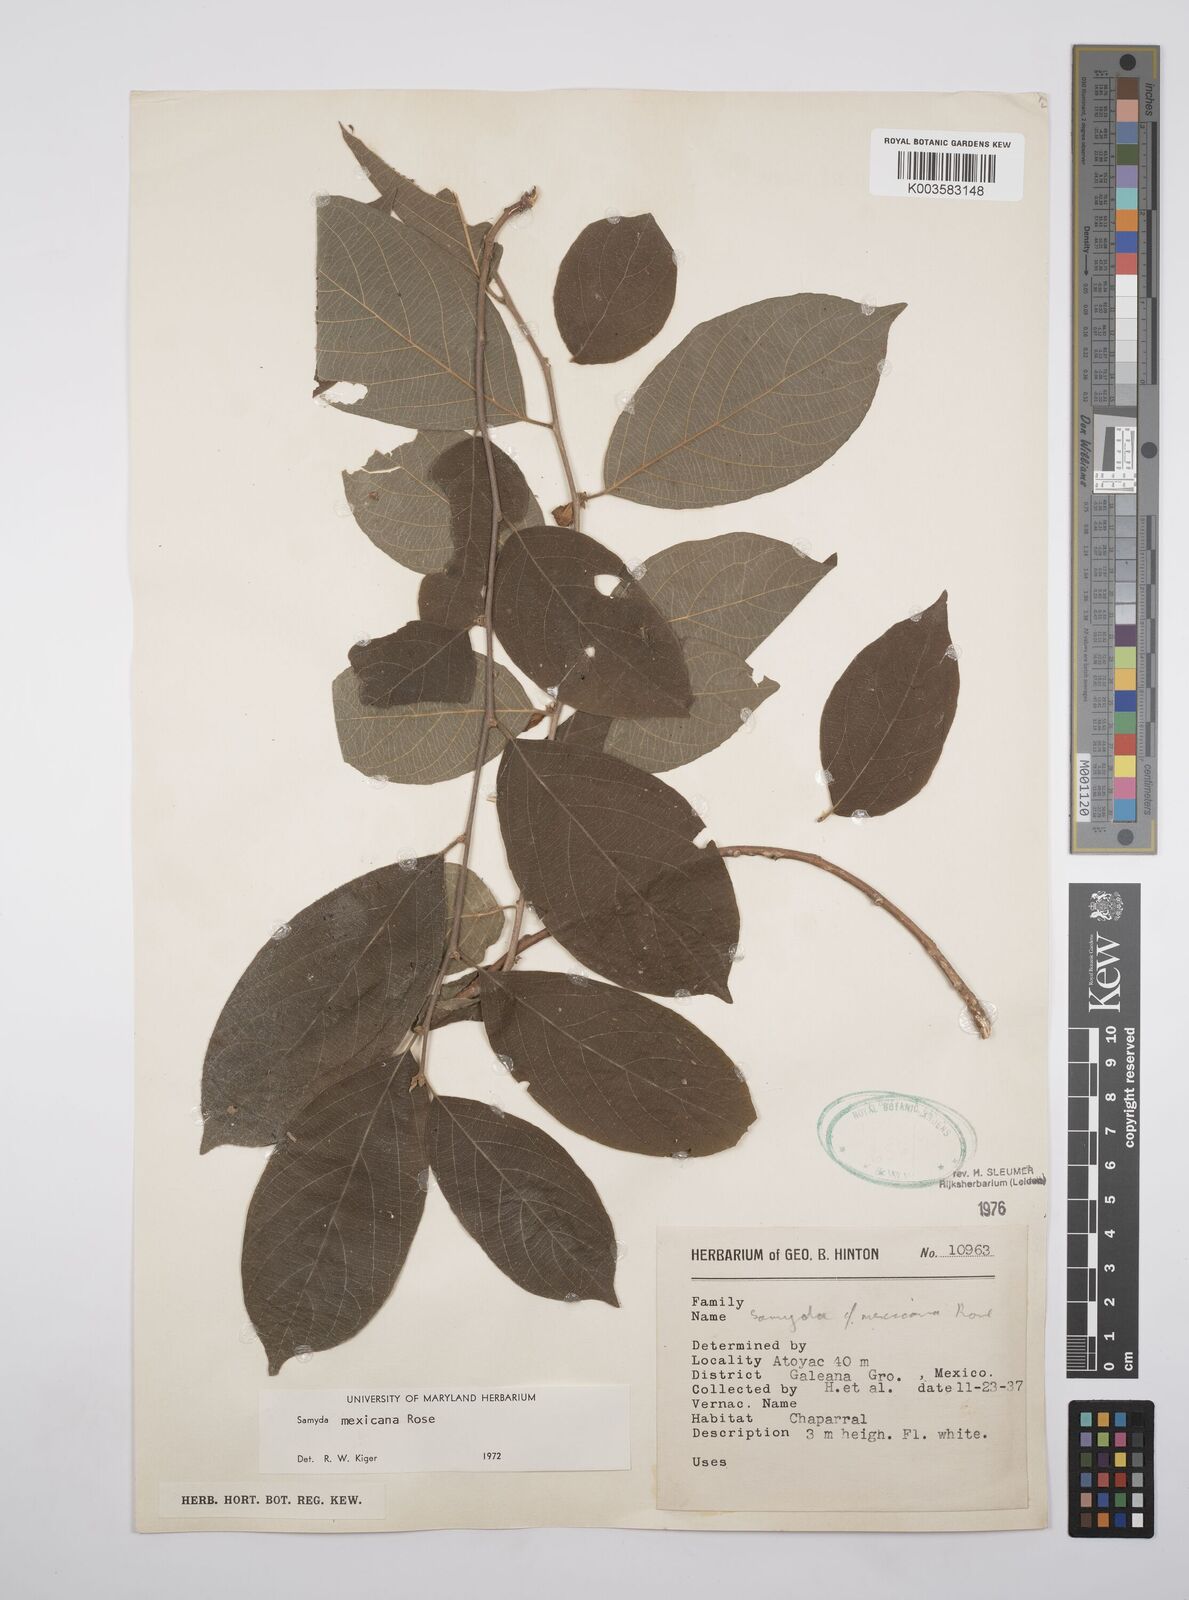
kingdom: Plantae
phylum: Tracheophyta
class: Magnoliopsida
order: Malpighiales
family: Salicaceae
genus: Casearia
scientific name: Casearia mexicana
